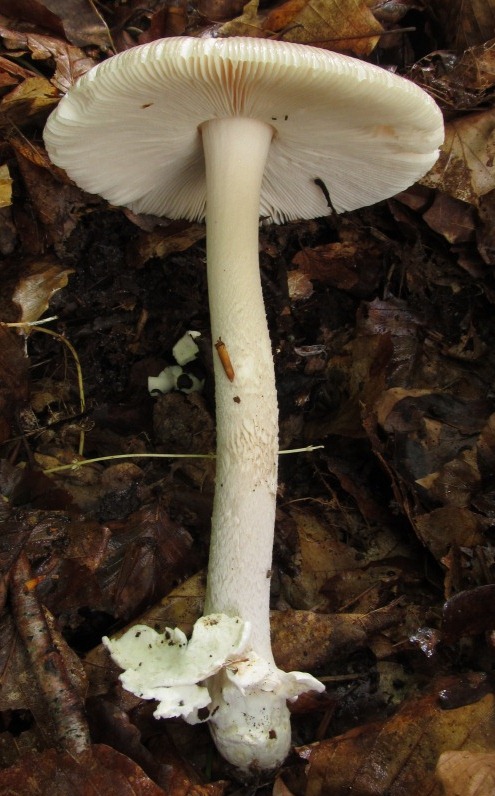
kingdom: Fungi
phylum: Basidiomycota
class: Agaricomycetes
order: Agaricales
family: Amanitaceae
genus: Amanita
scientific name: Amanita coryli
